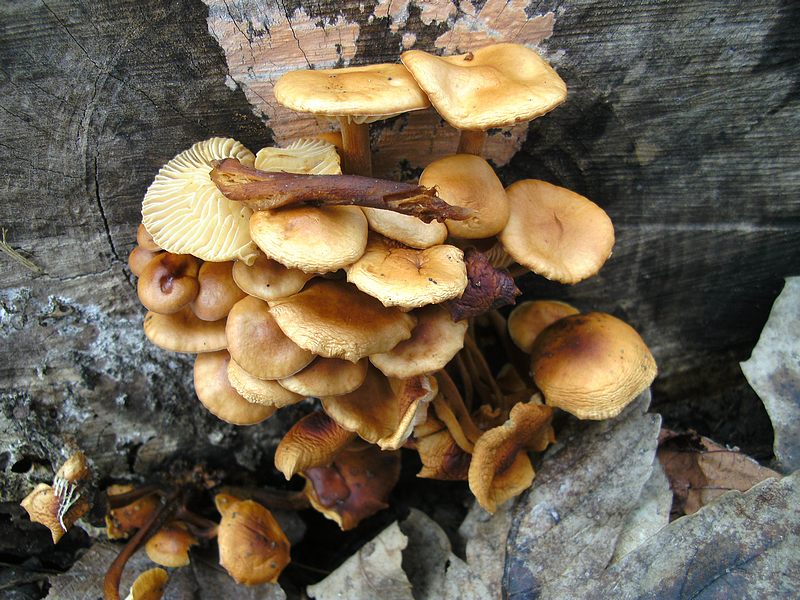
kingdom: Fungi
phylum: Basidiomycota
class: Agaricomycetes
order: Agaricales
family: Physalacriaceae
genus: Flammulina
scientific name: Flammulina velutipes
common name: gul fløjlsfod
